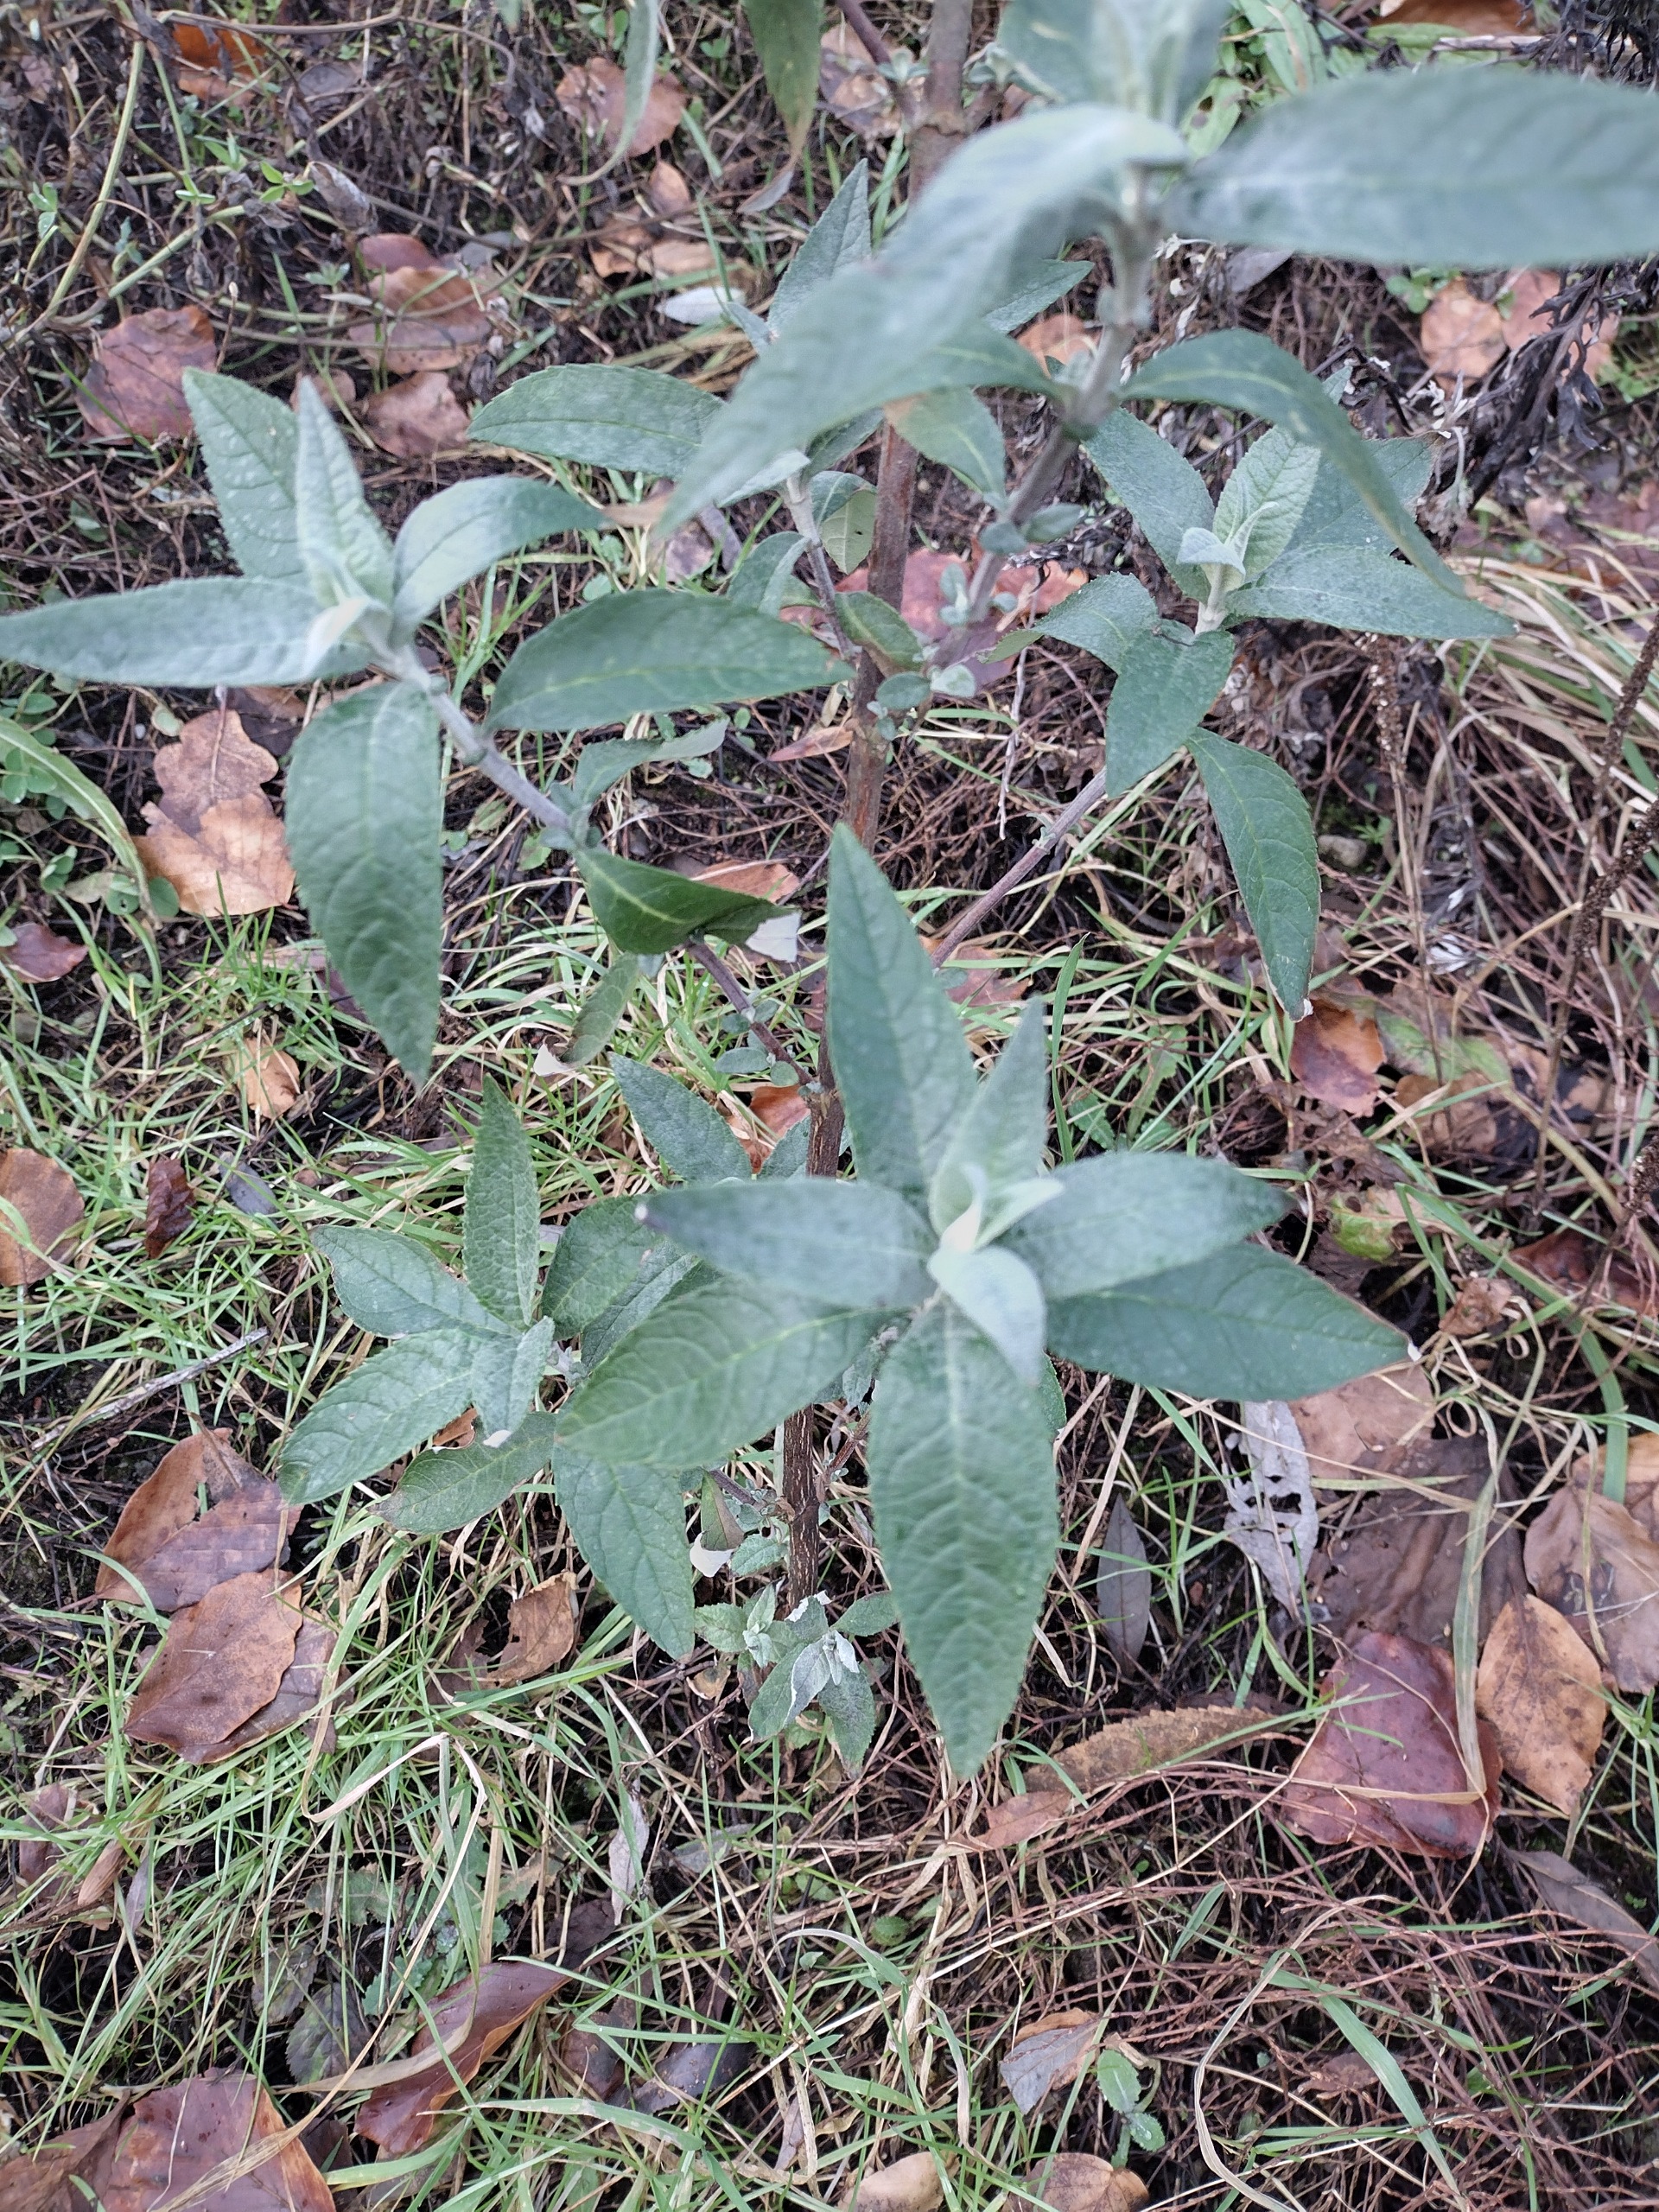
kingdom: Plantae
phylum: Tracheophyta
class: Magnoliopsida
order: Lamiales
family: Scrophulariaceae
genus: Buddleja
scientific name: Buddleja davidii
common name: Sommerfuglebusk
